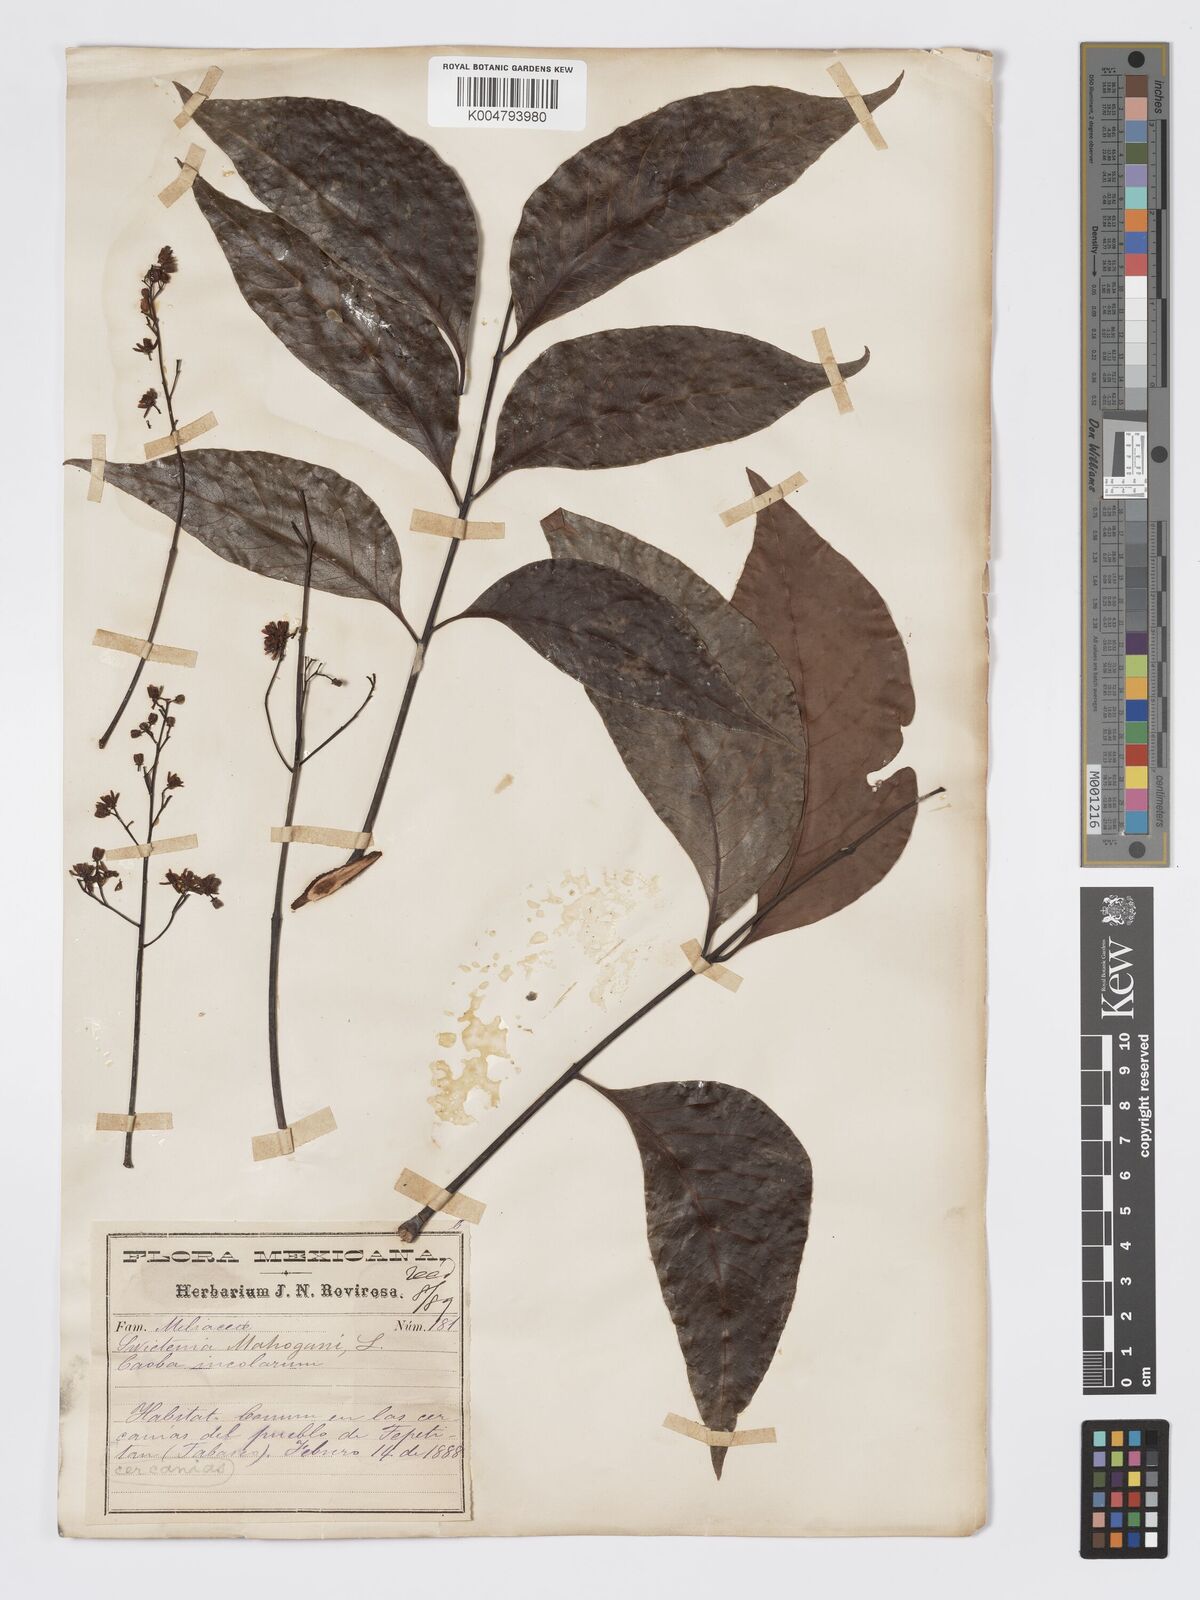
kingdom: Plantae
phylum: Tracheophyta
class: Magnoliopsida
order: Sapindales
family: Meliaceae
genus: Swietenia
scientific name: Swietenia macrophylla
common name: Honduras mahogany
